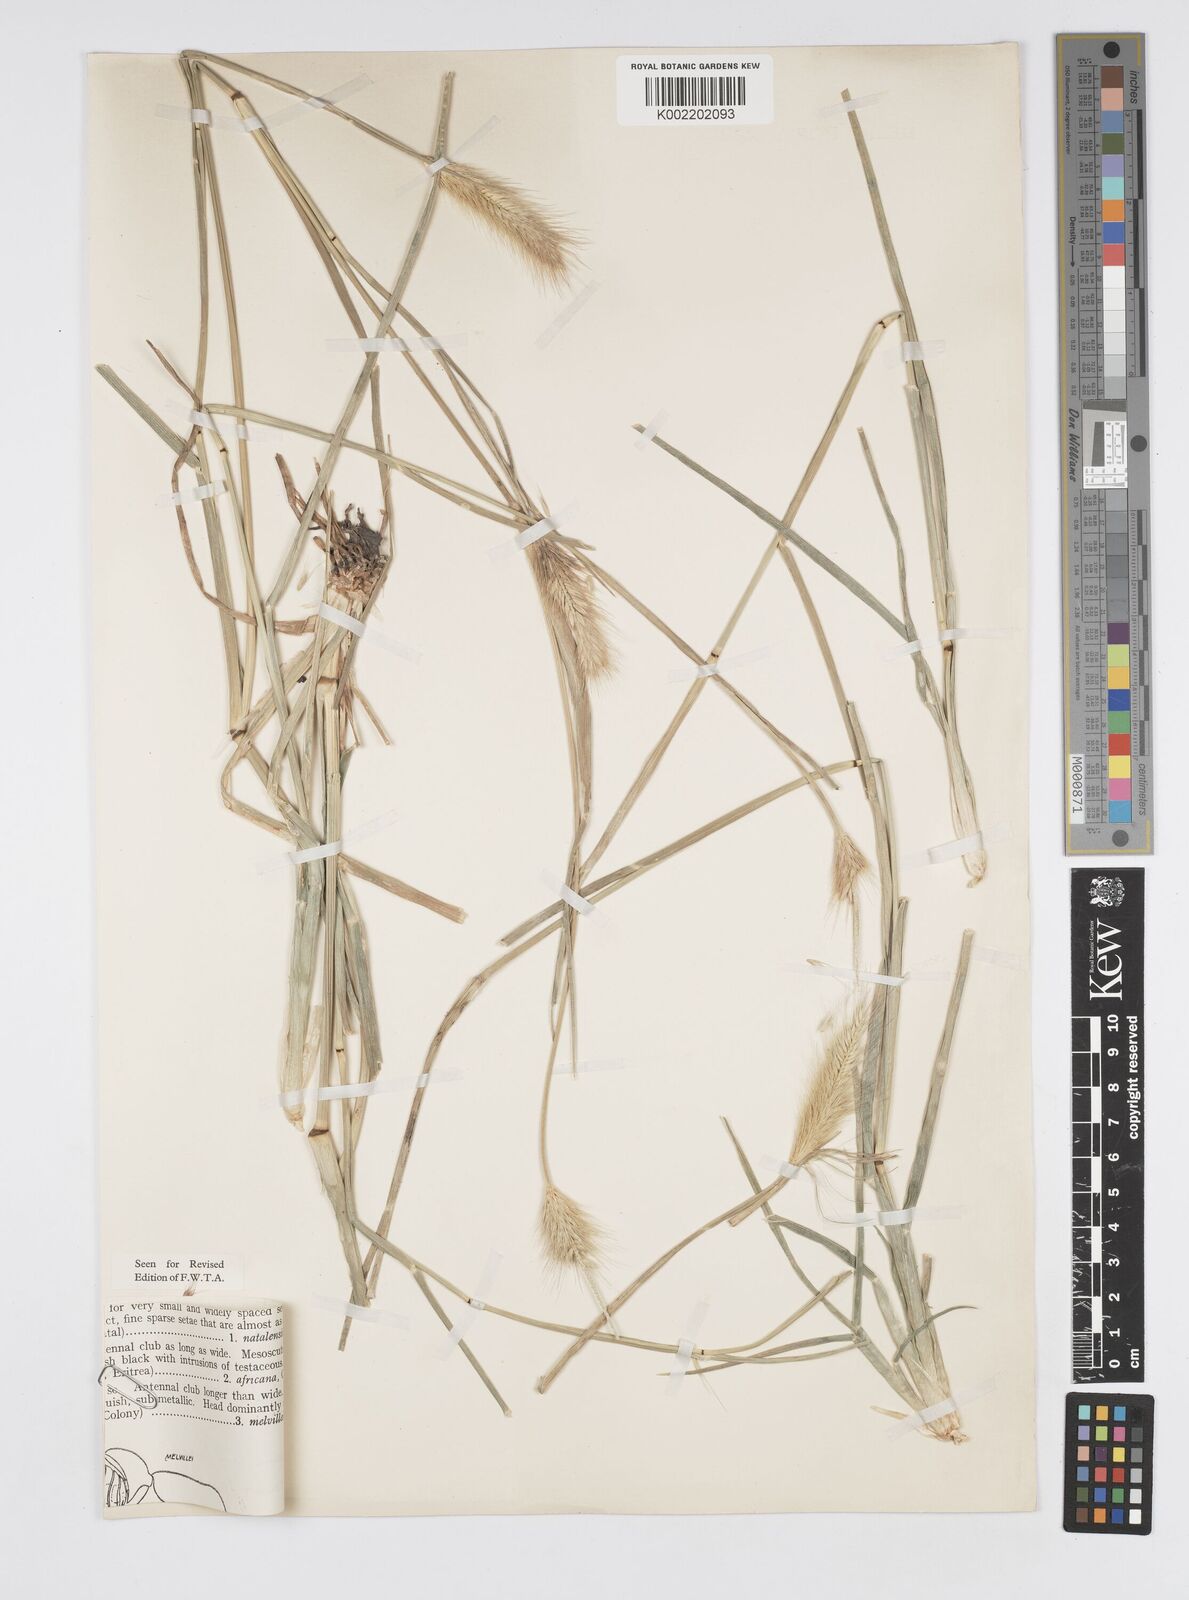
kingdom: Plantae
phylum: Tracheophyta
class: Liliopsida
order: Poales
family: Poaceae
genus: Cenchrus
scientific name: Cenchrus ramosus
